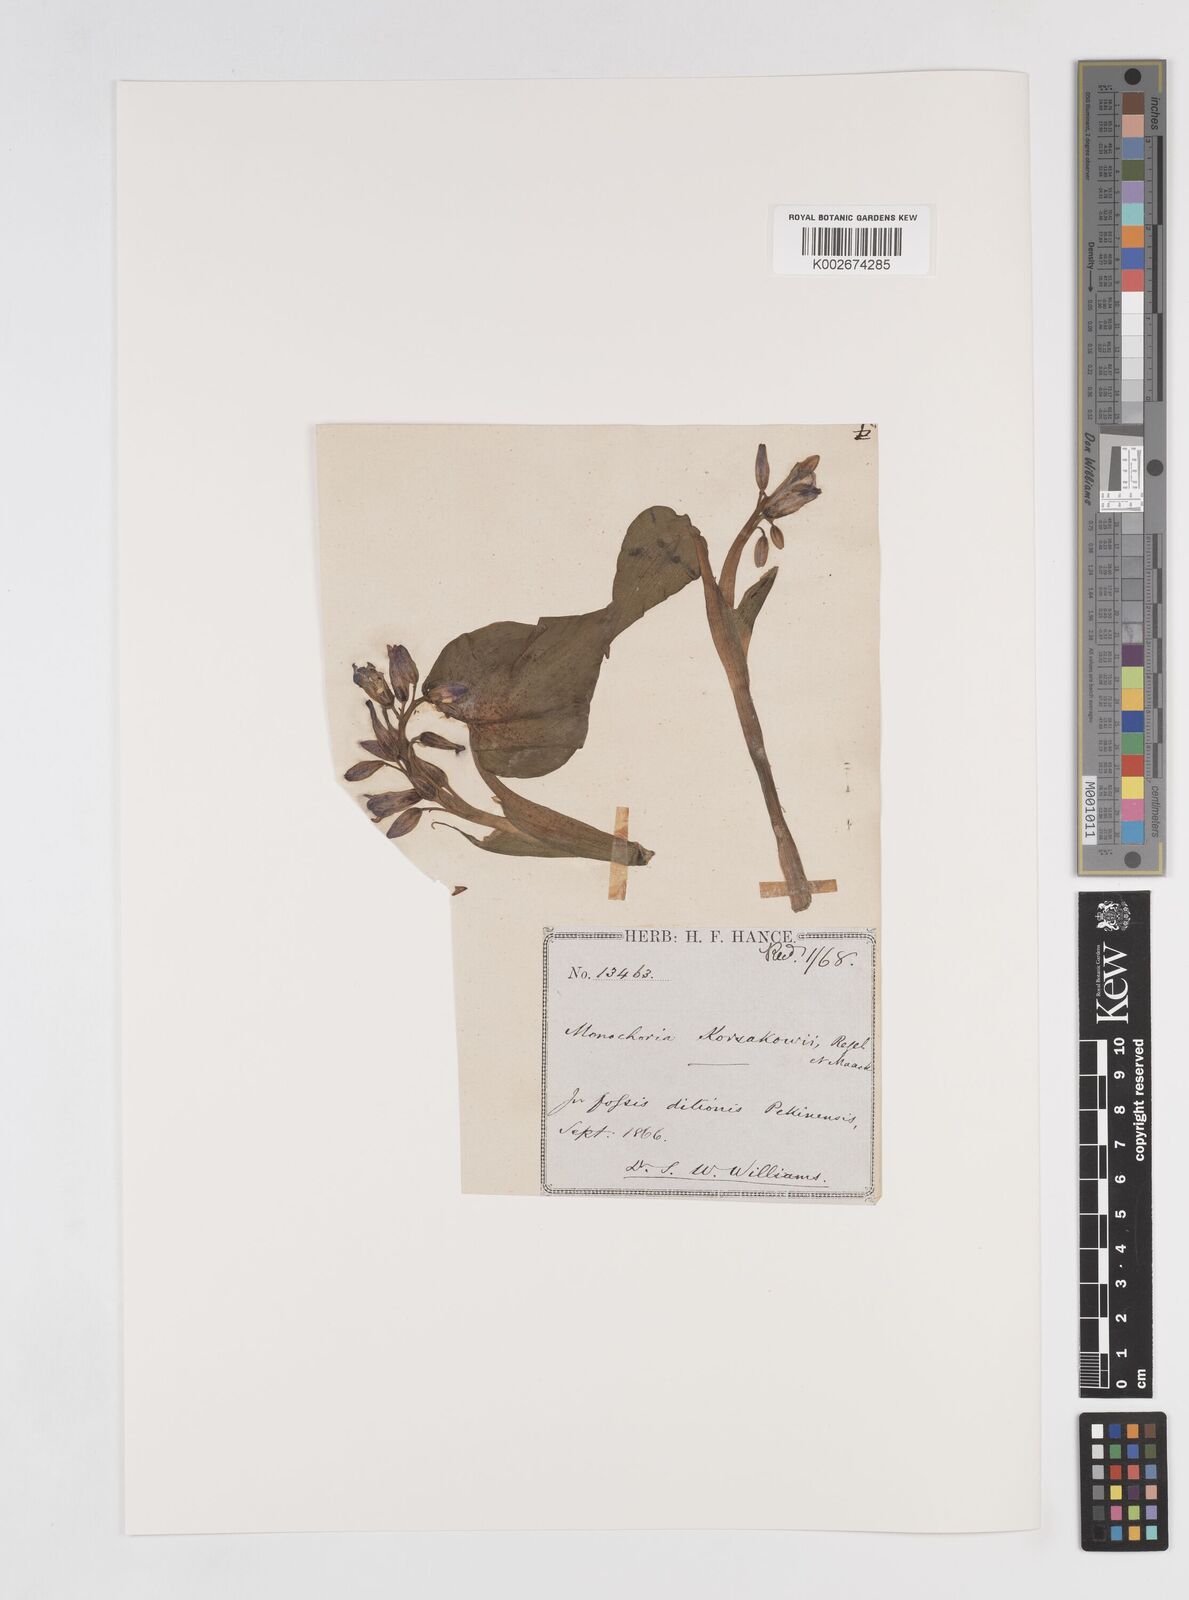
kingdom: Plantae
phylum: Tracheophyta
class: Liliopsida
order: Commelinales
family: Pontederiaceae
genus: Pontederia
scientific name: Pontederia korsakowii
